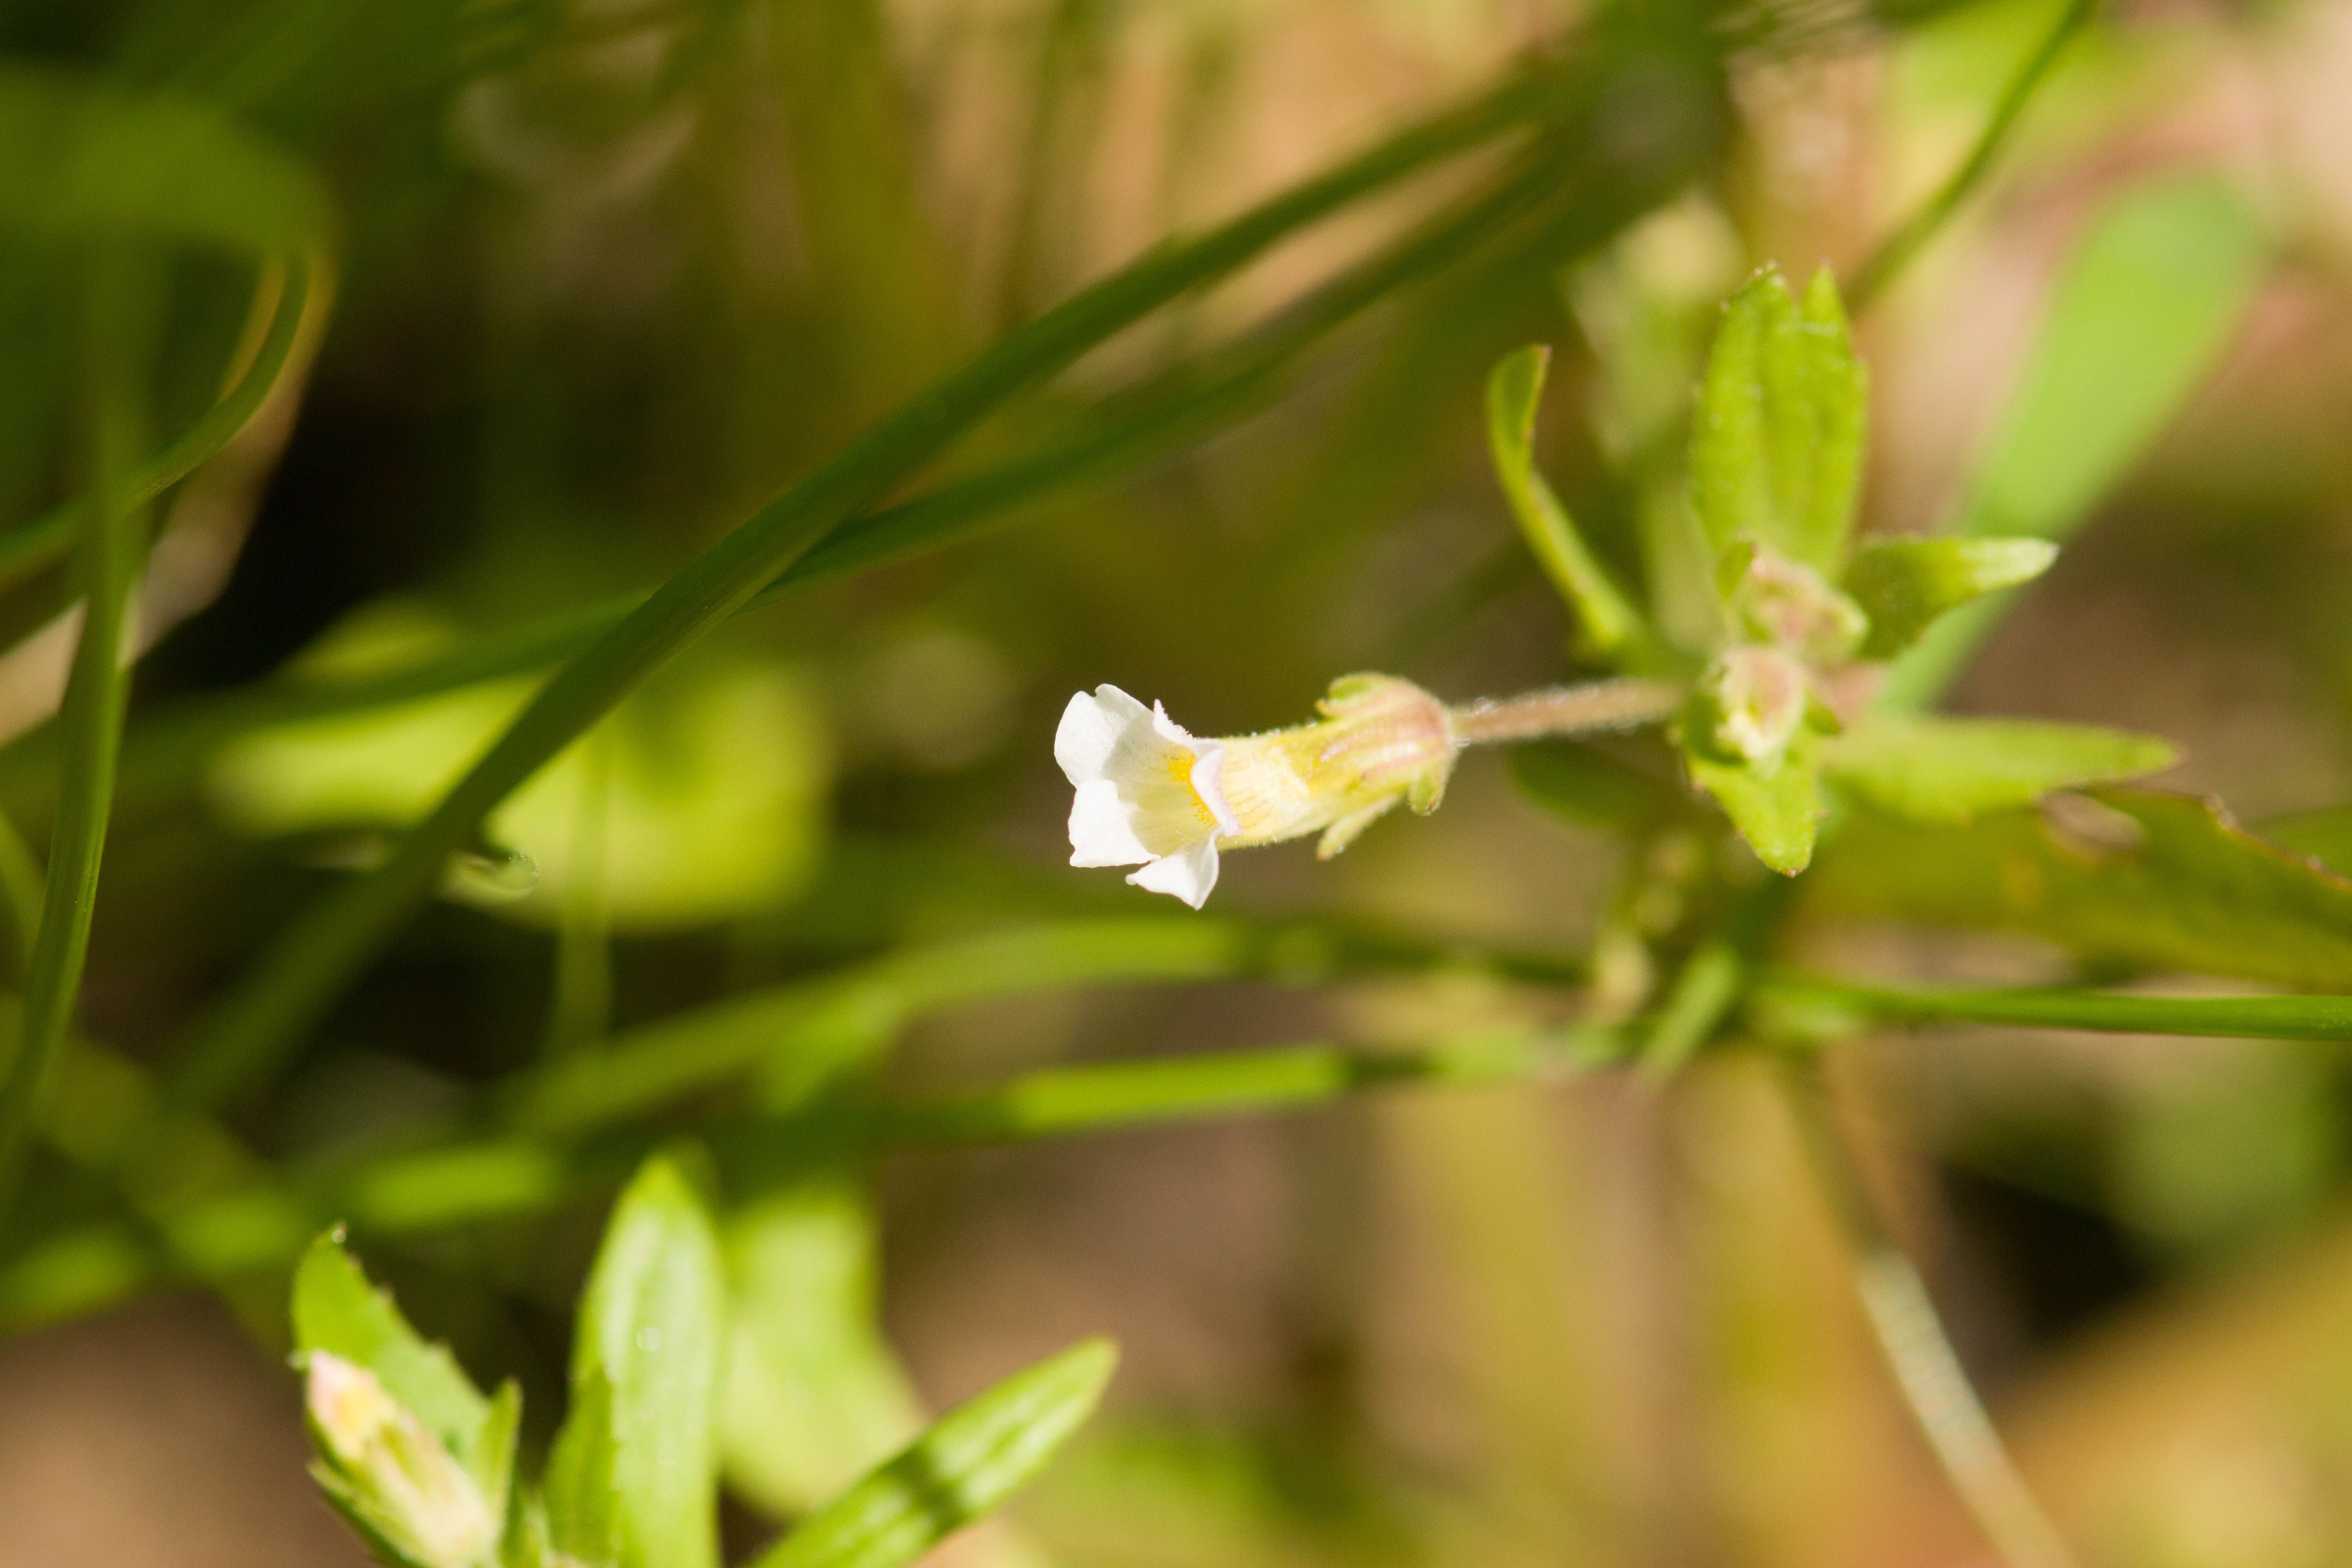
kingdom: Plantae
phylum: Tracheophyta
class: Magnoliopsida
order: Lamiales
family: Plantaginaceae
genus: Gratiola
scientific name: Gratiola neglecta
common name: American hedge-hyssop
